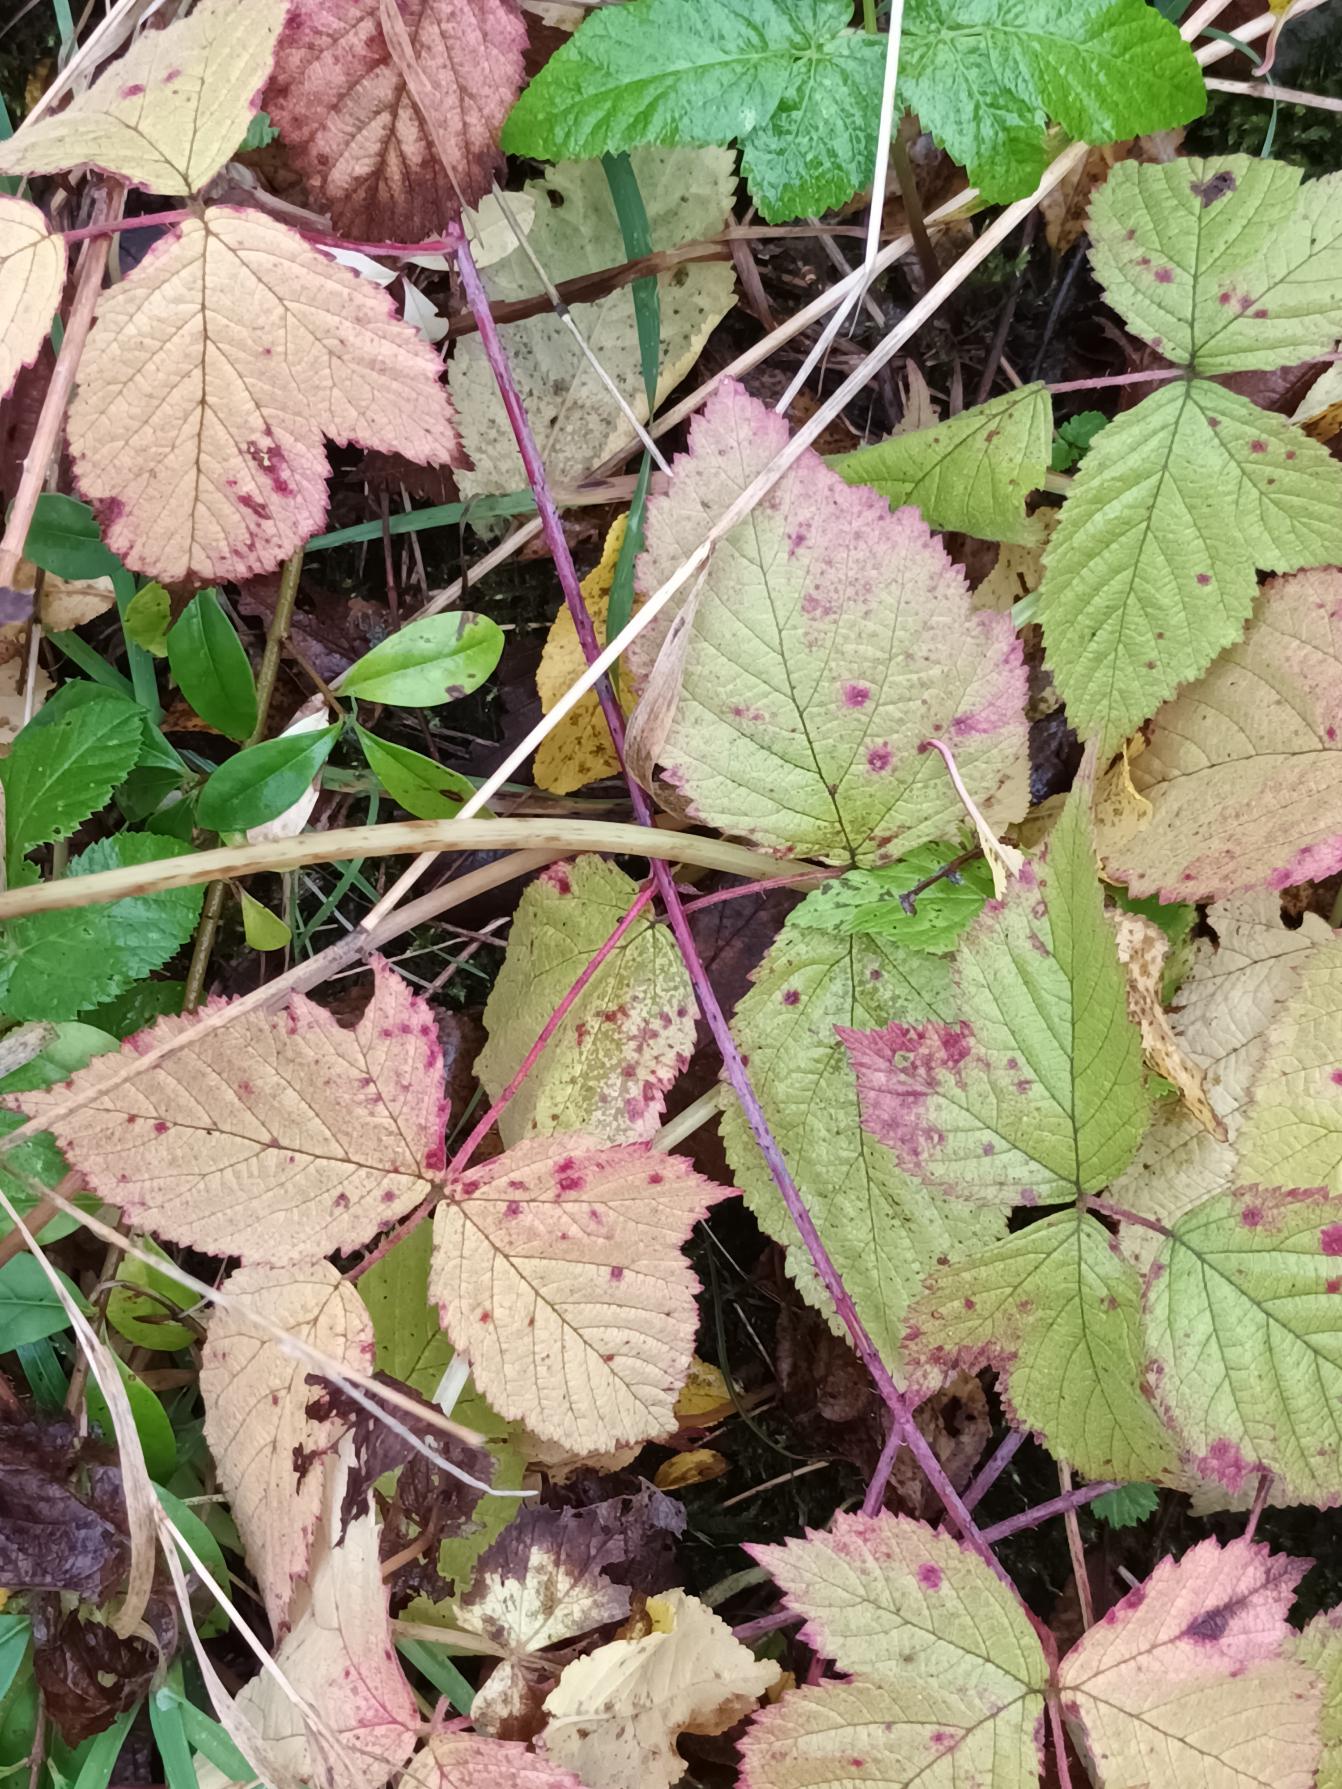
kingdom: Plantae
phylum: Tracheophyta
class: Magnoliopsida
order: Rosales
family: Rosaceae
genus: Rubus
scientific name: Rubus caesius
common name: Korbær
